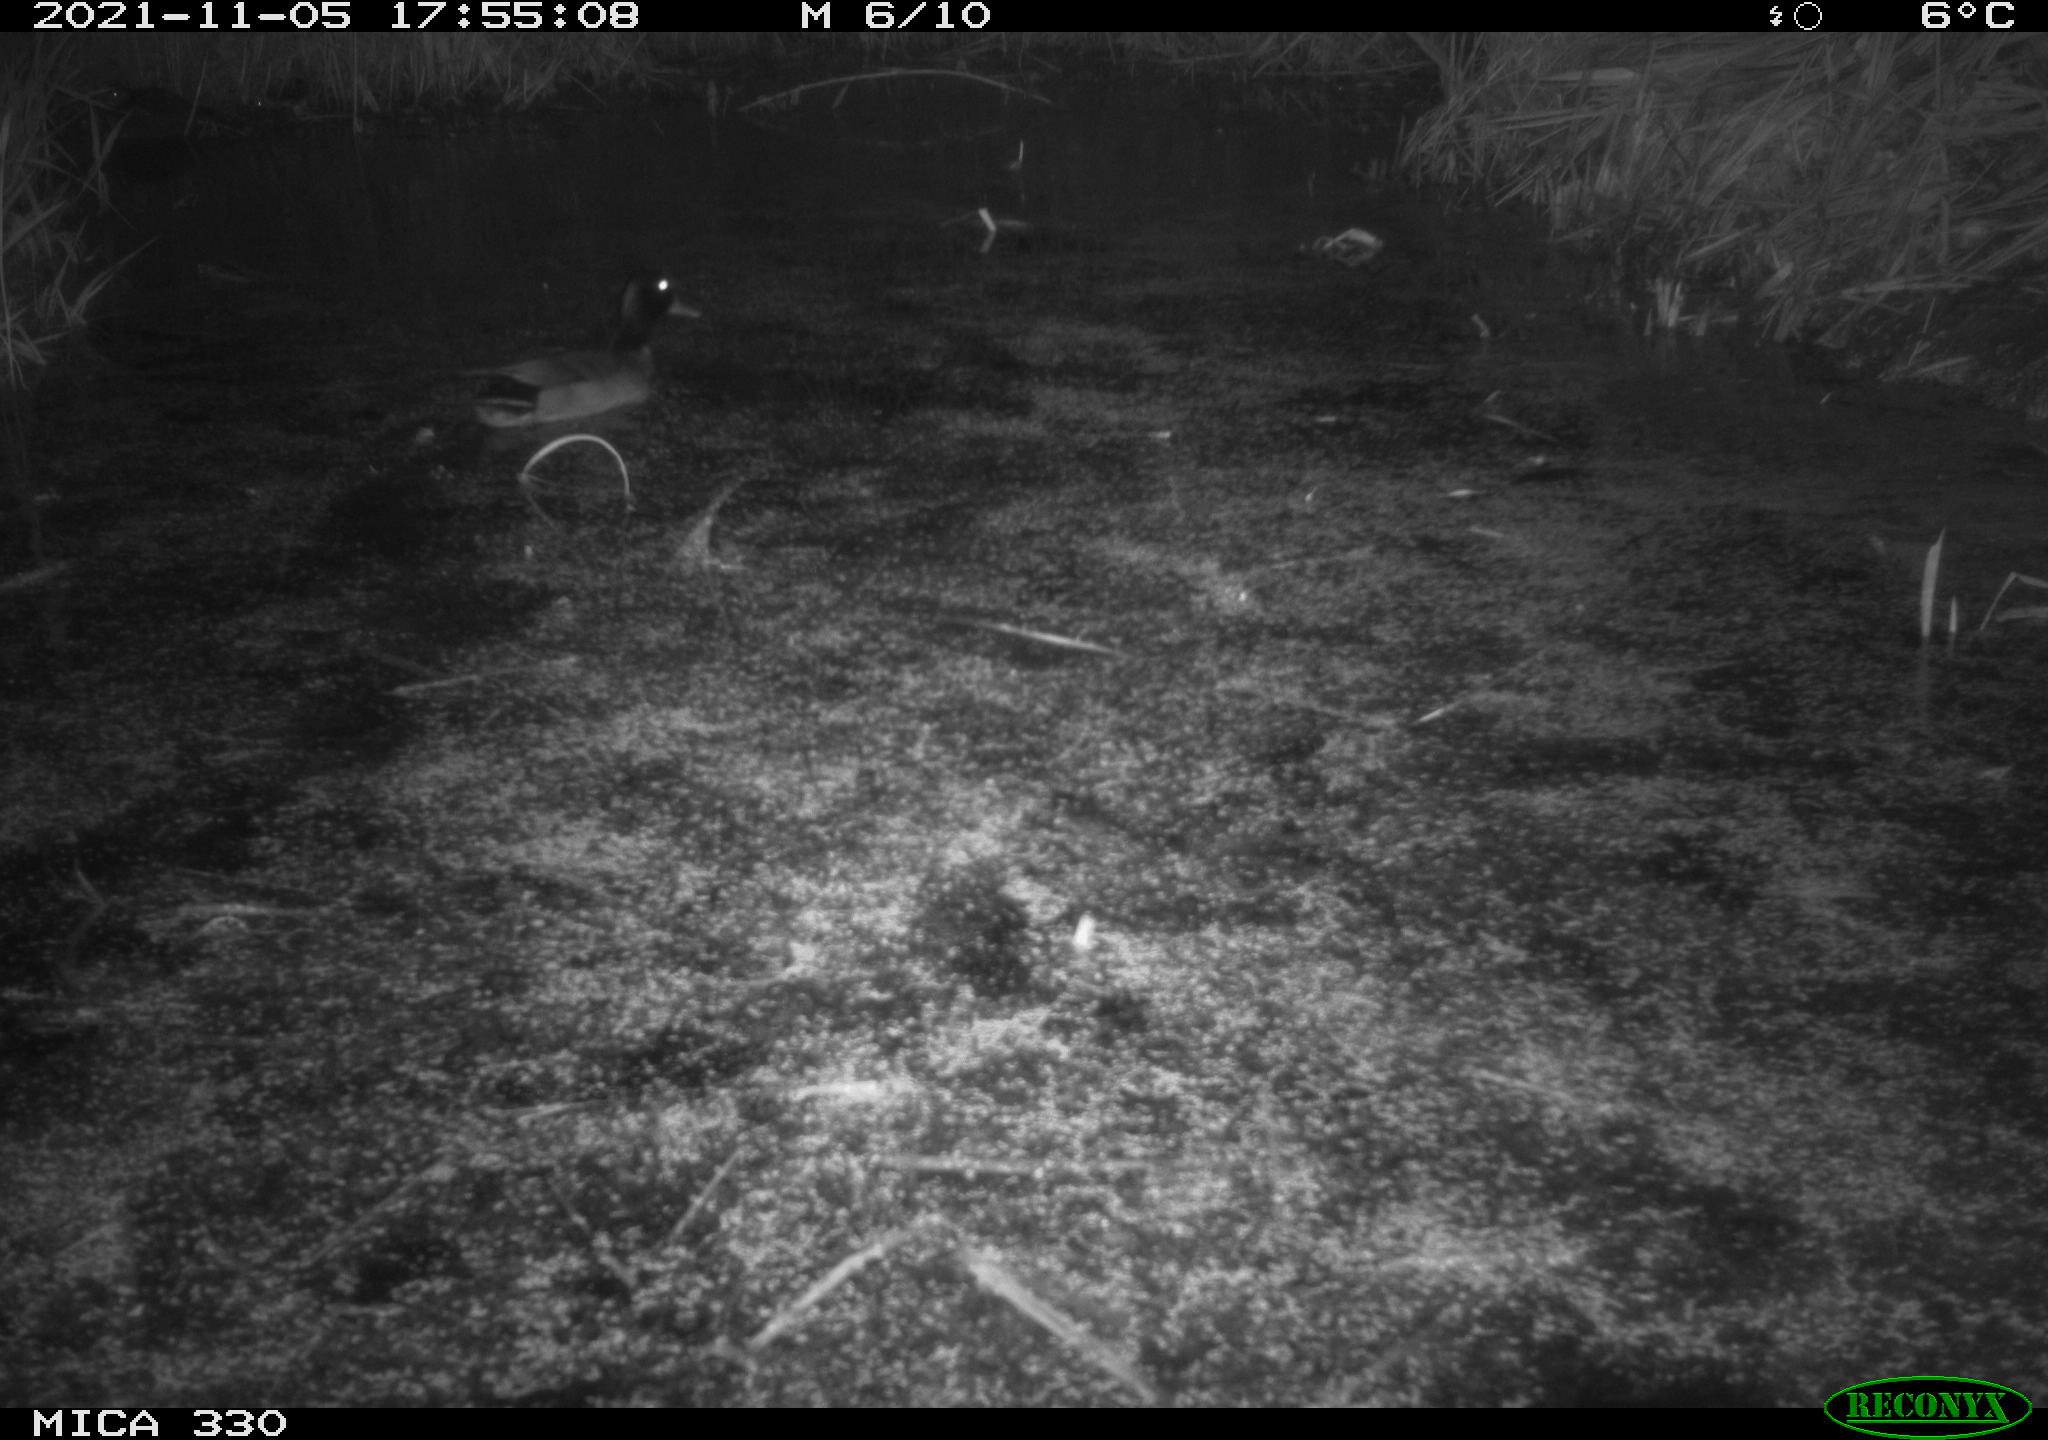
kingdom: Animalia
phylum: Chordata
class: Aves
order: Anseriformes
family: Anatidae
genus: Anas
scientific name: Anas platyrhynchos
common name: Mallard
